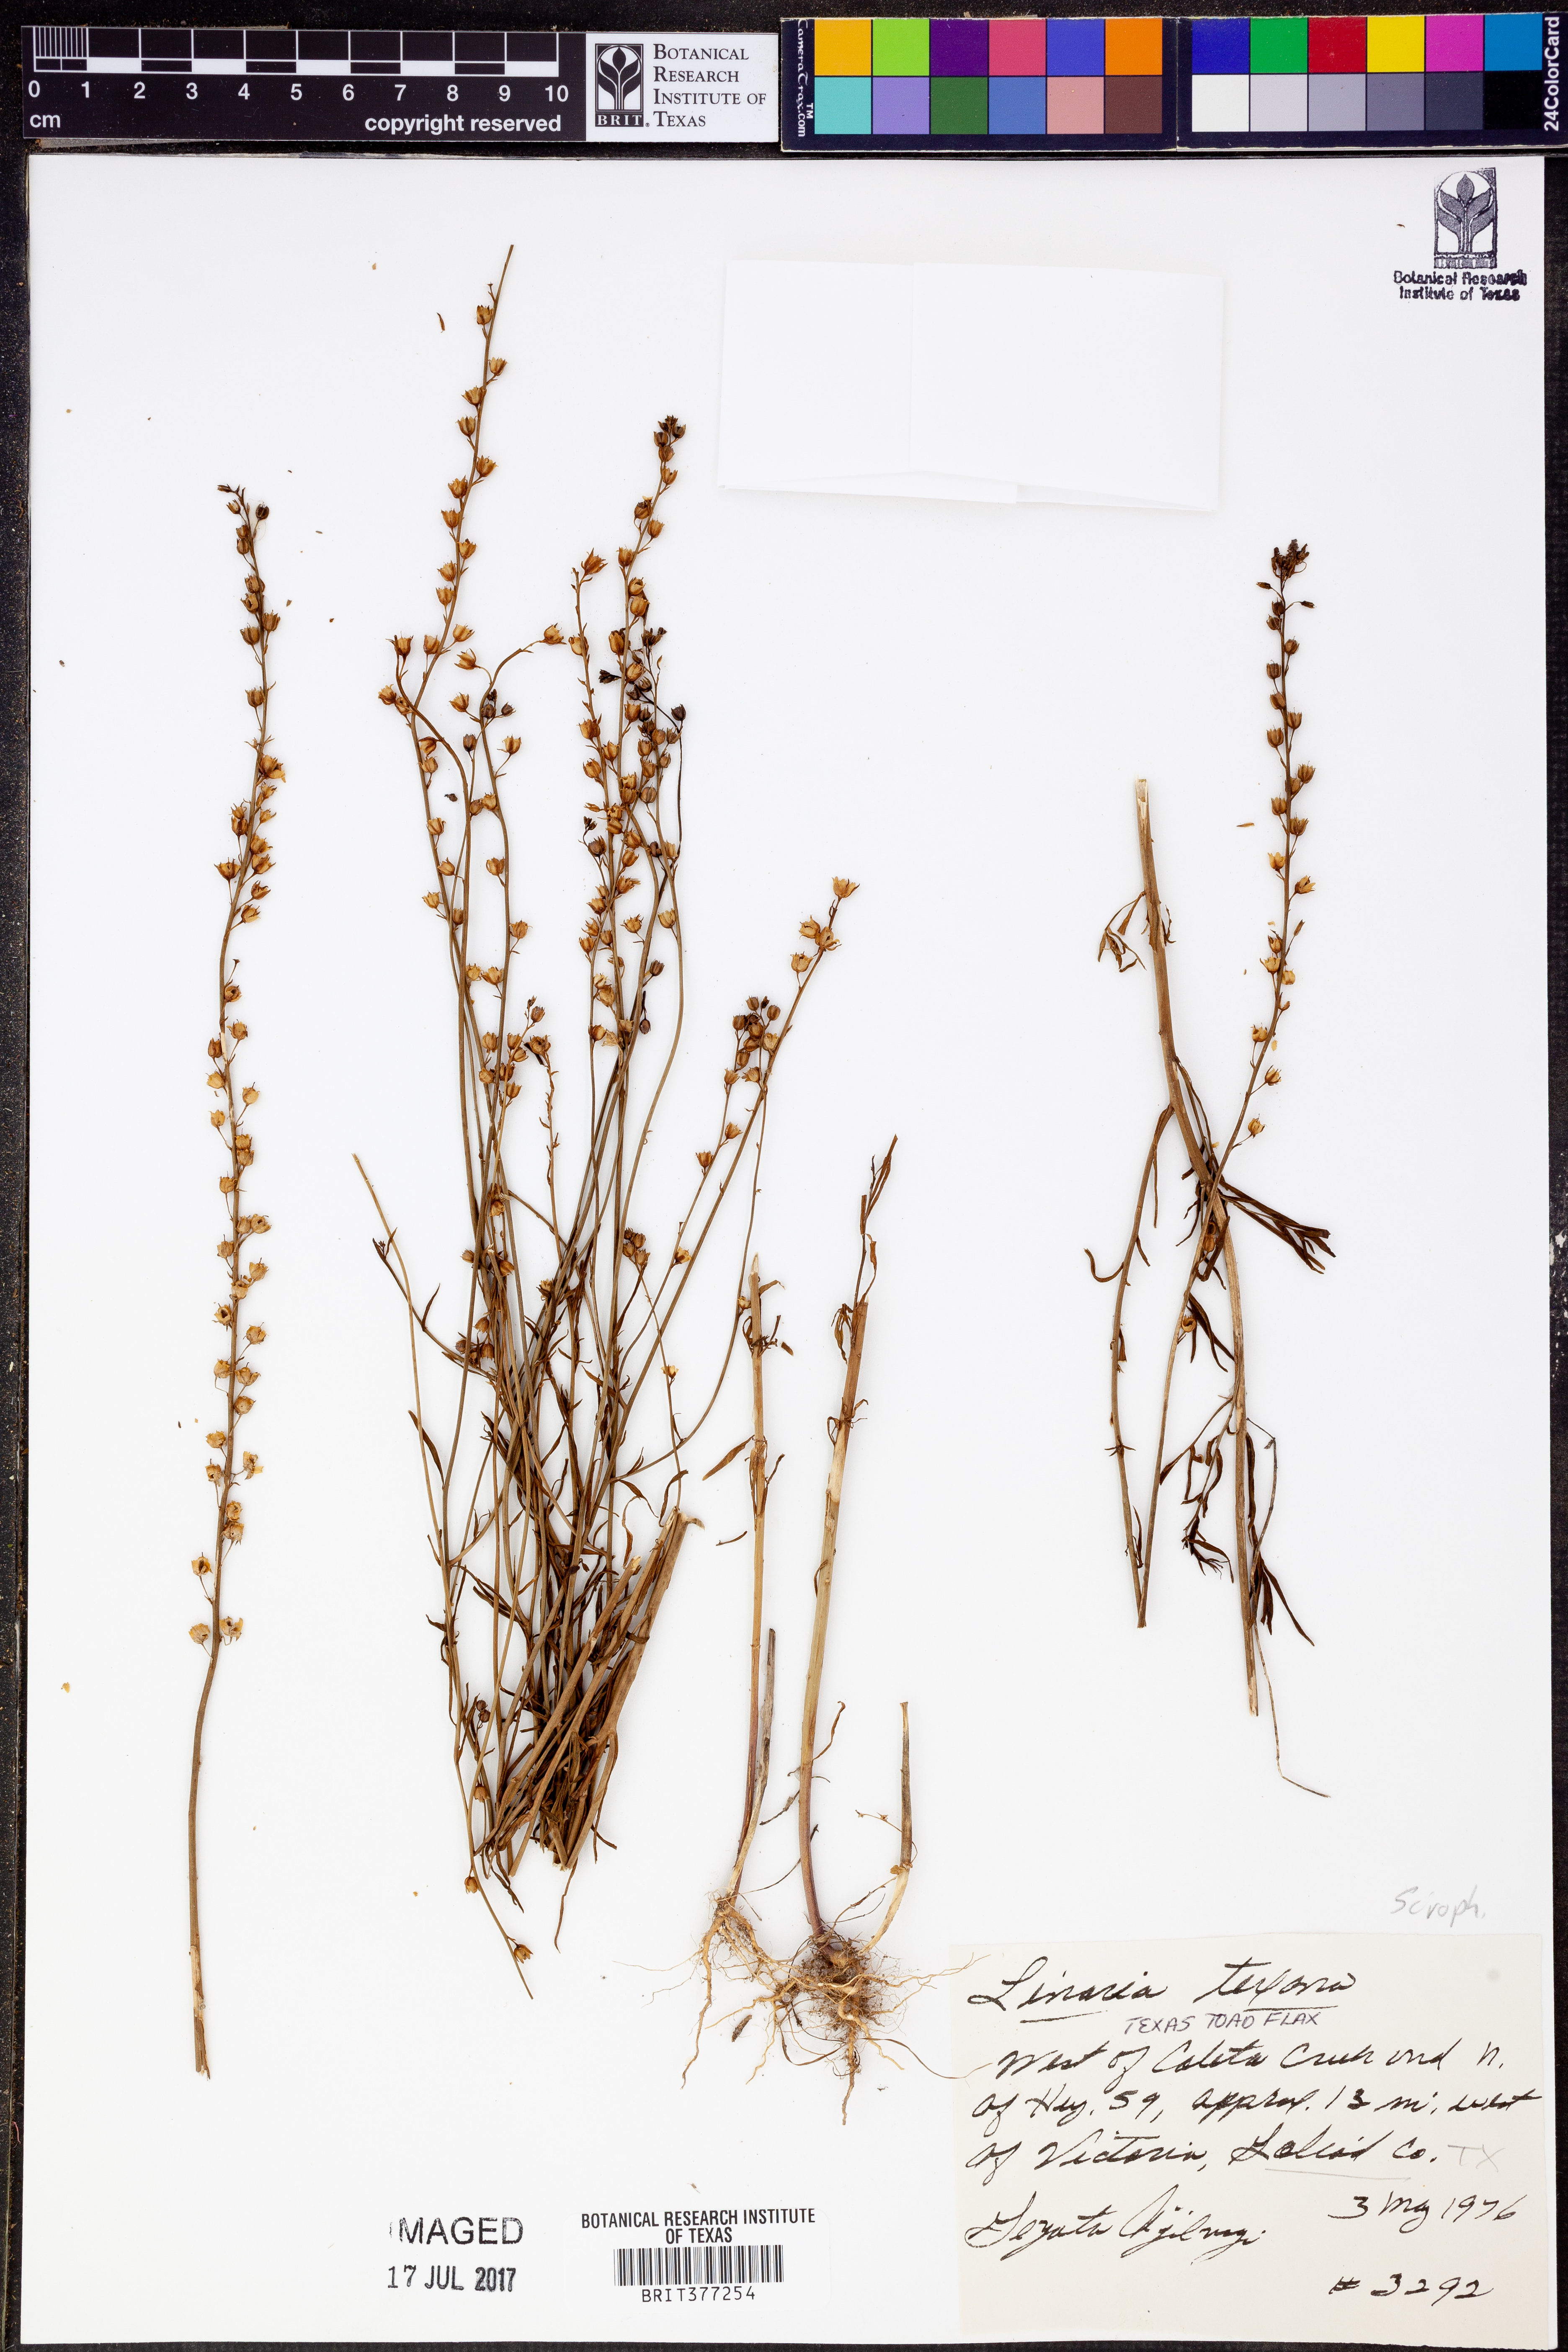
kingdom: Plantae
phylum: Tracheophyta
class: Magnoliopsida
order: Lamiales
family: Plantaginaceae
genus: Nuttallanthus
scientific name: Nuttallanthus texanus
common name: Texas toadflax
